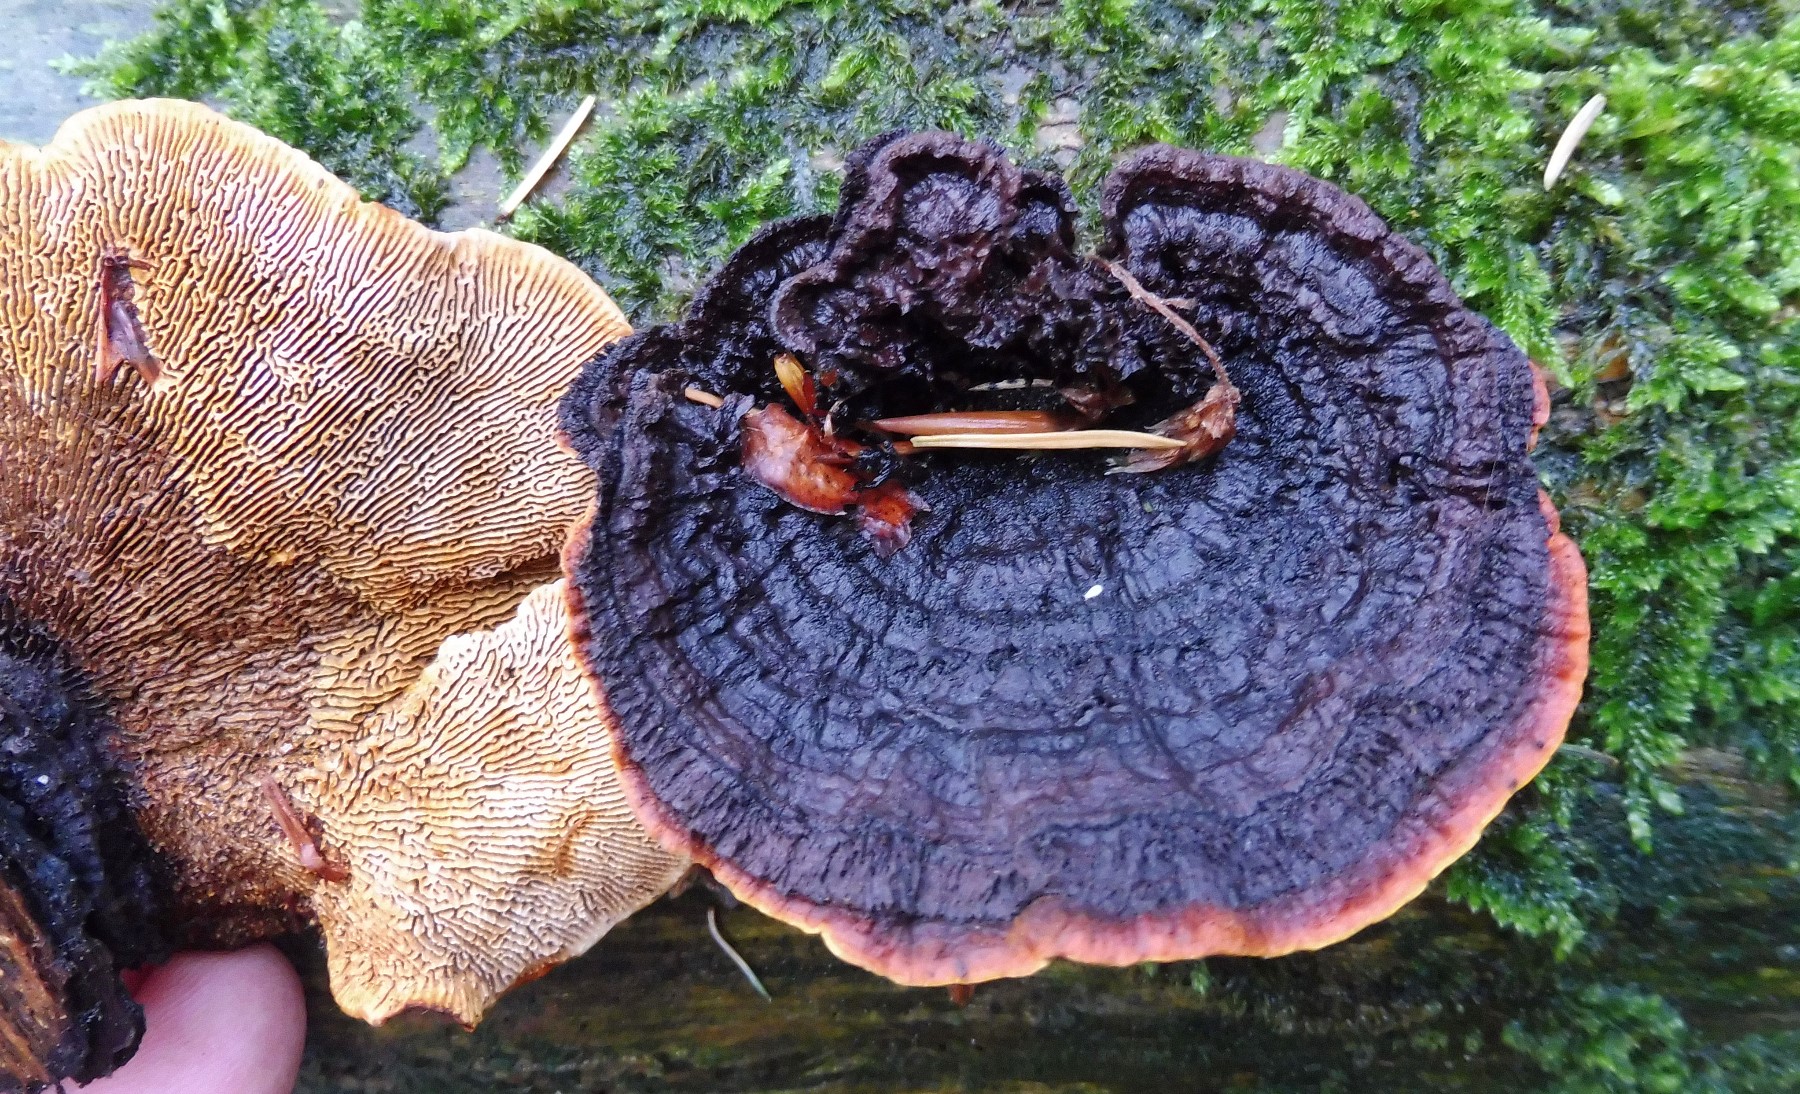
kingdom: Fungi
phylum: Basidiomycota
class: Agaricomycetes
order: Gloeophyllales
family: Gloeophyllaceae
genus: Gloeophyllum
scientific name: Gloeophyllum sepiarium
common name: fyrre-korkhat
